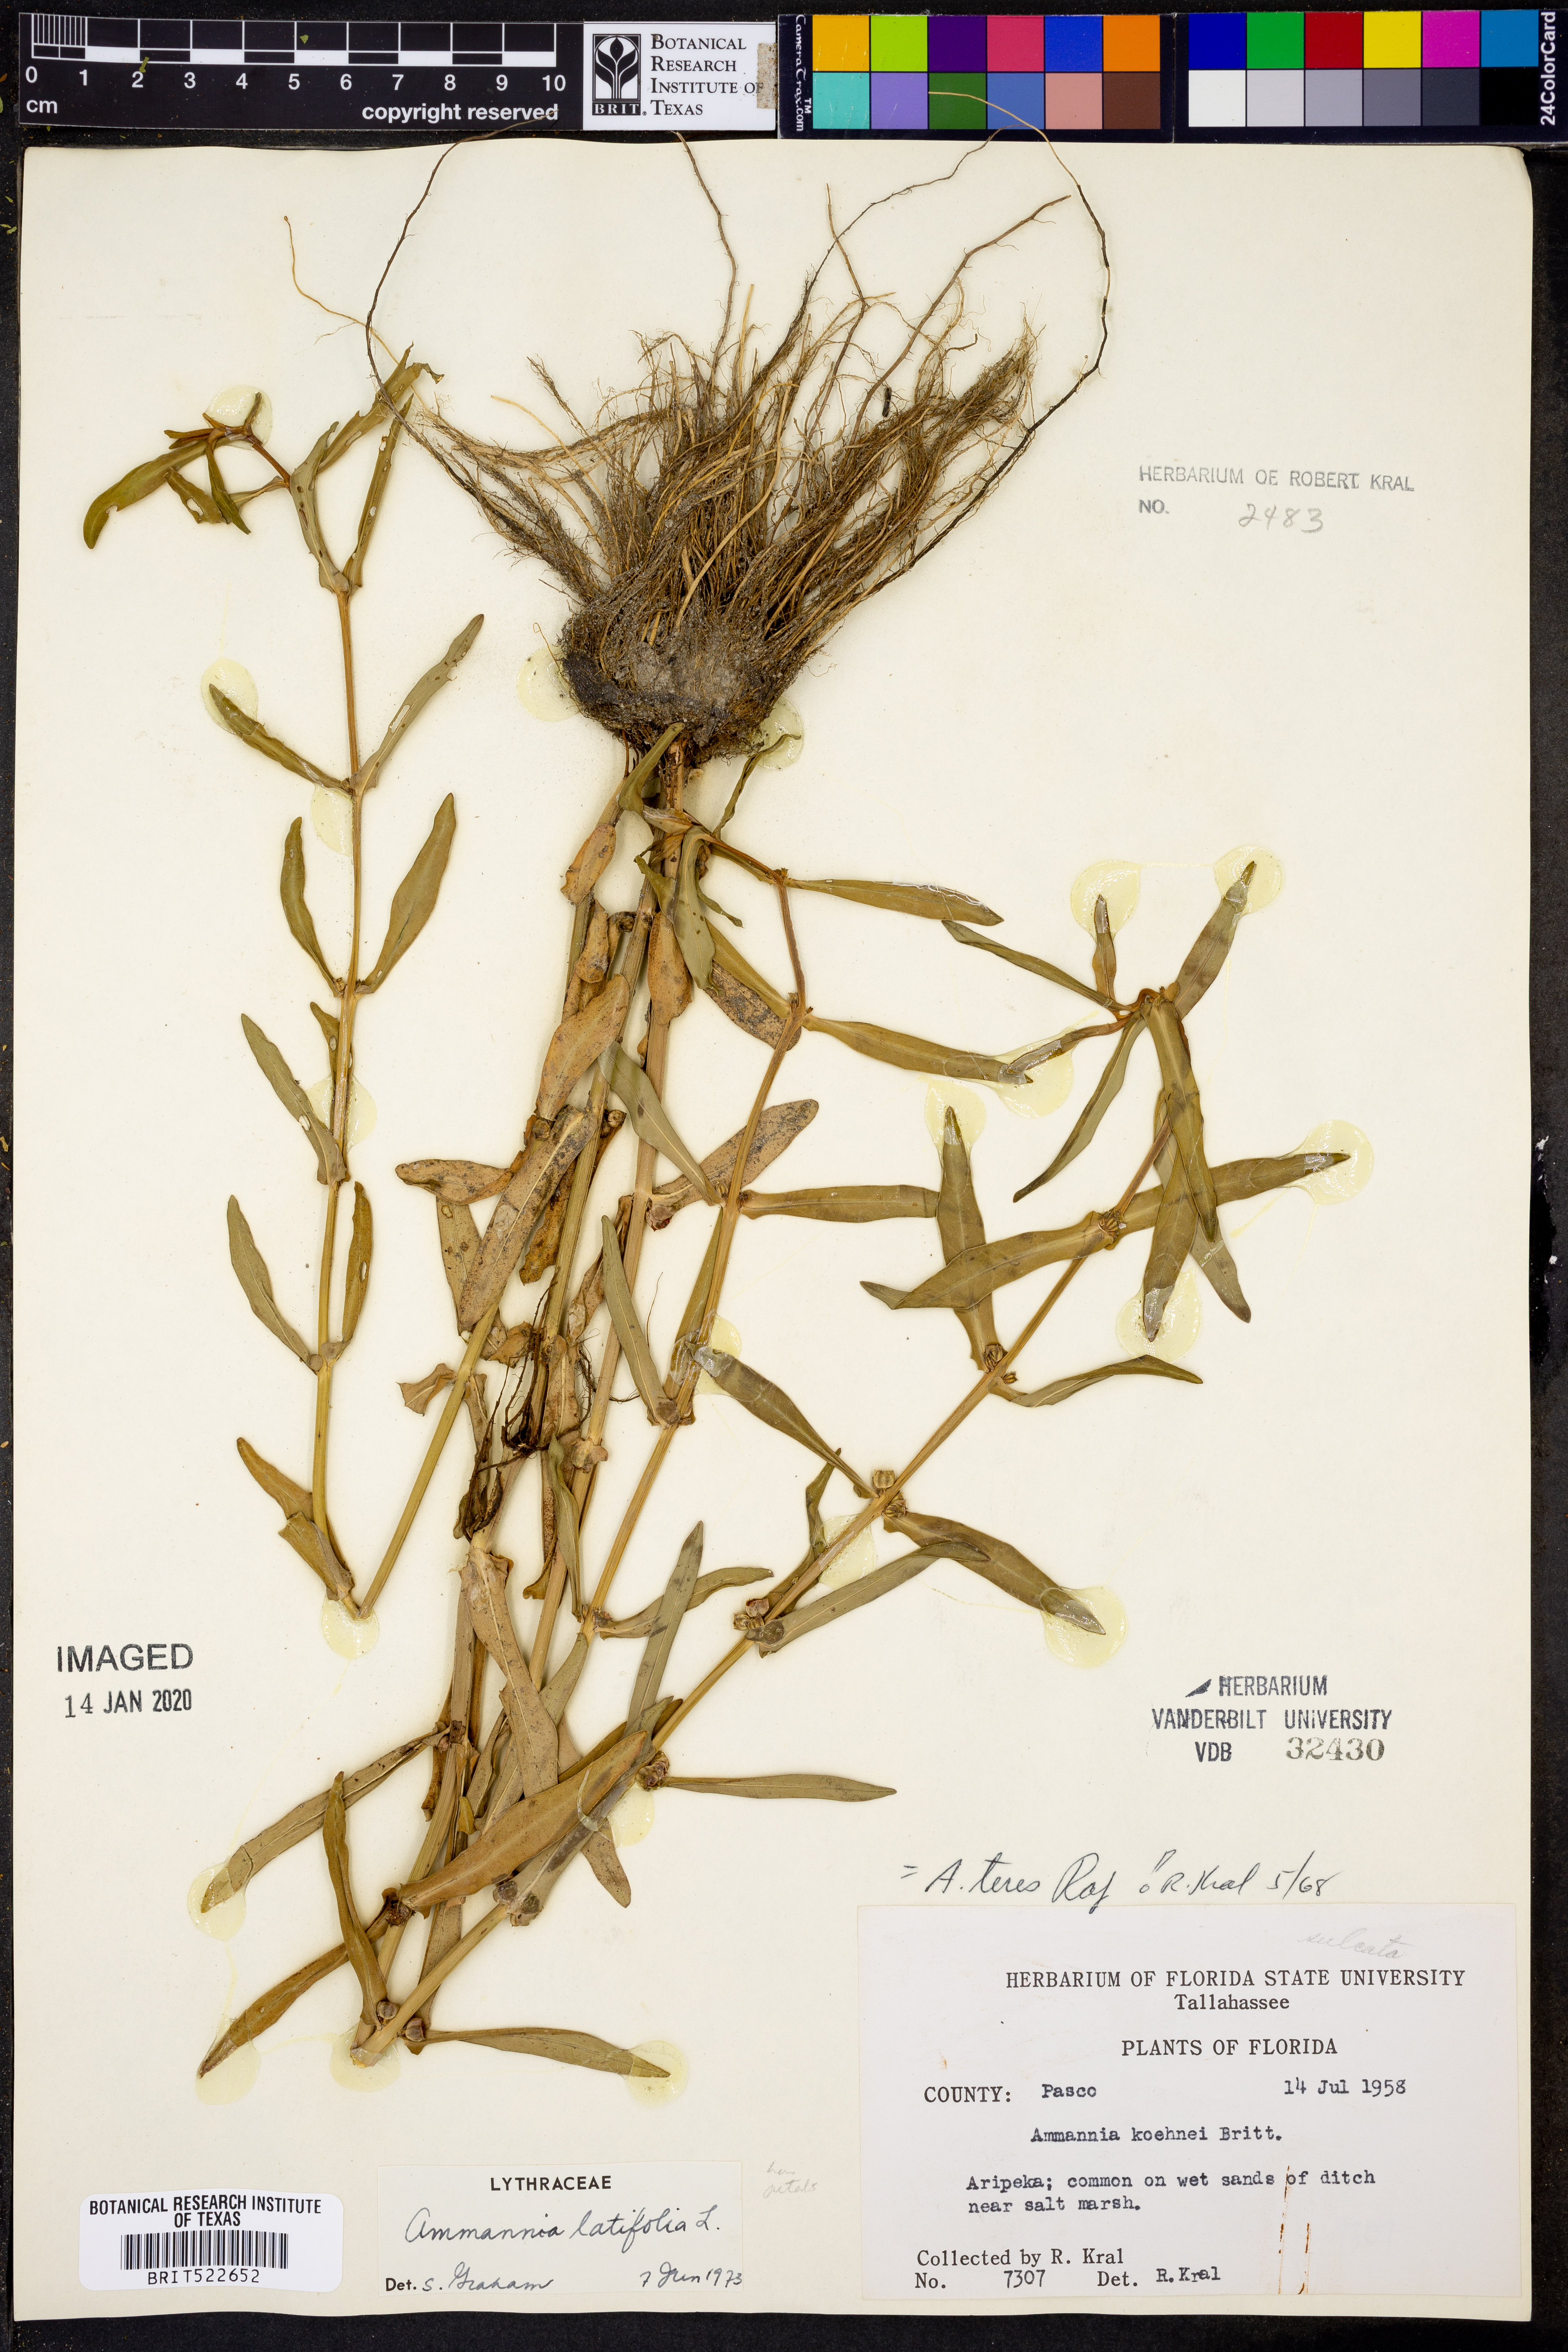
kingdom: Plantae
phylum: Tracheophyta
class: Magnoliopsida
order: Myrtales
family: Lythraceae
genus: Ammannia
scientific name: Ammannia latifolia
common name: Toothcup
